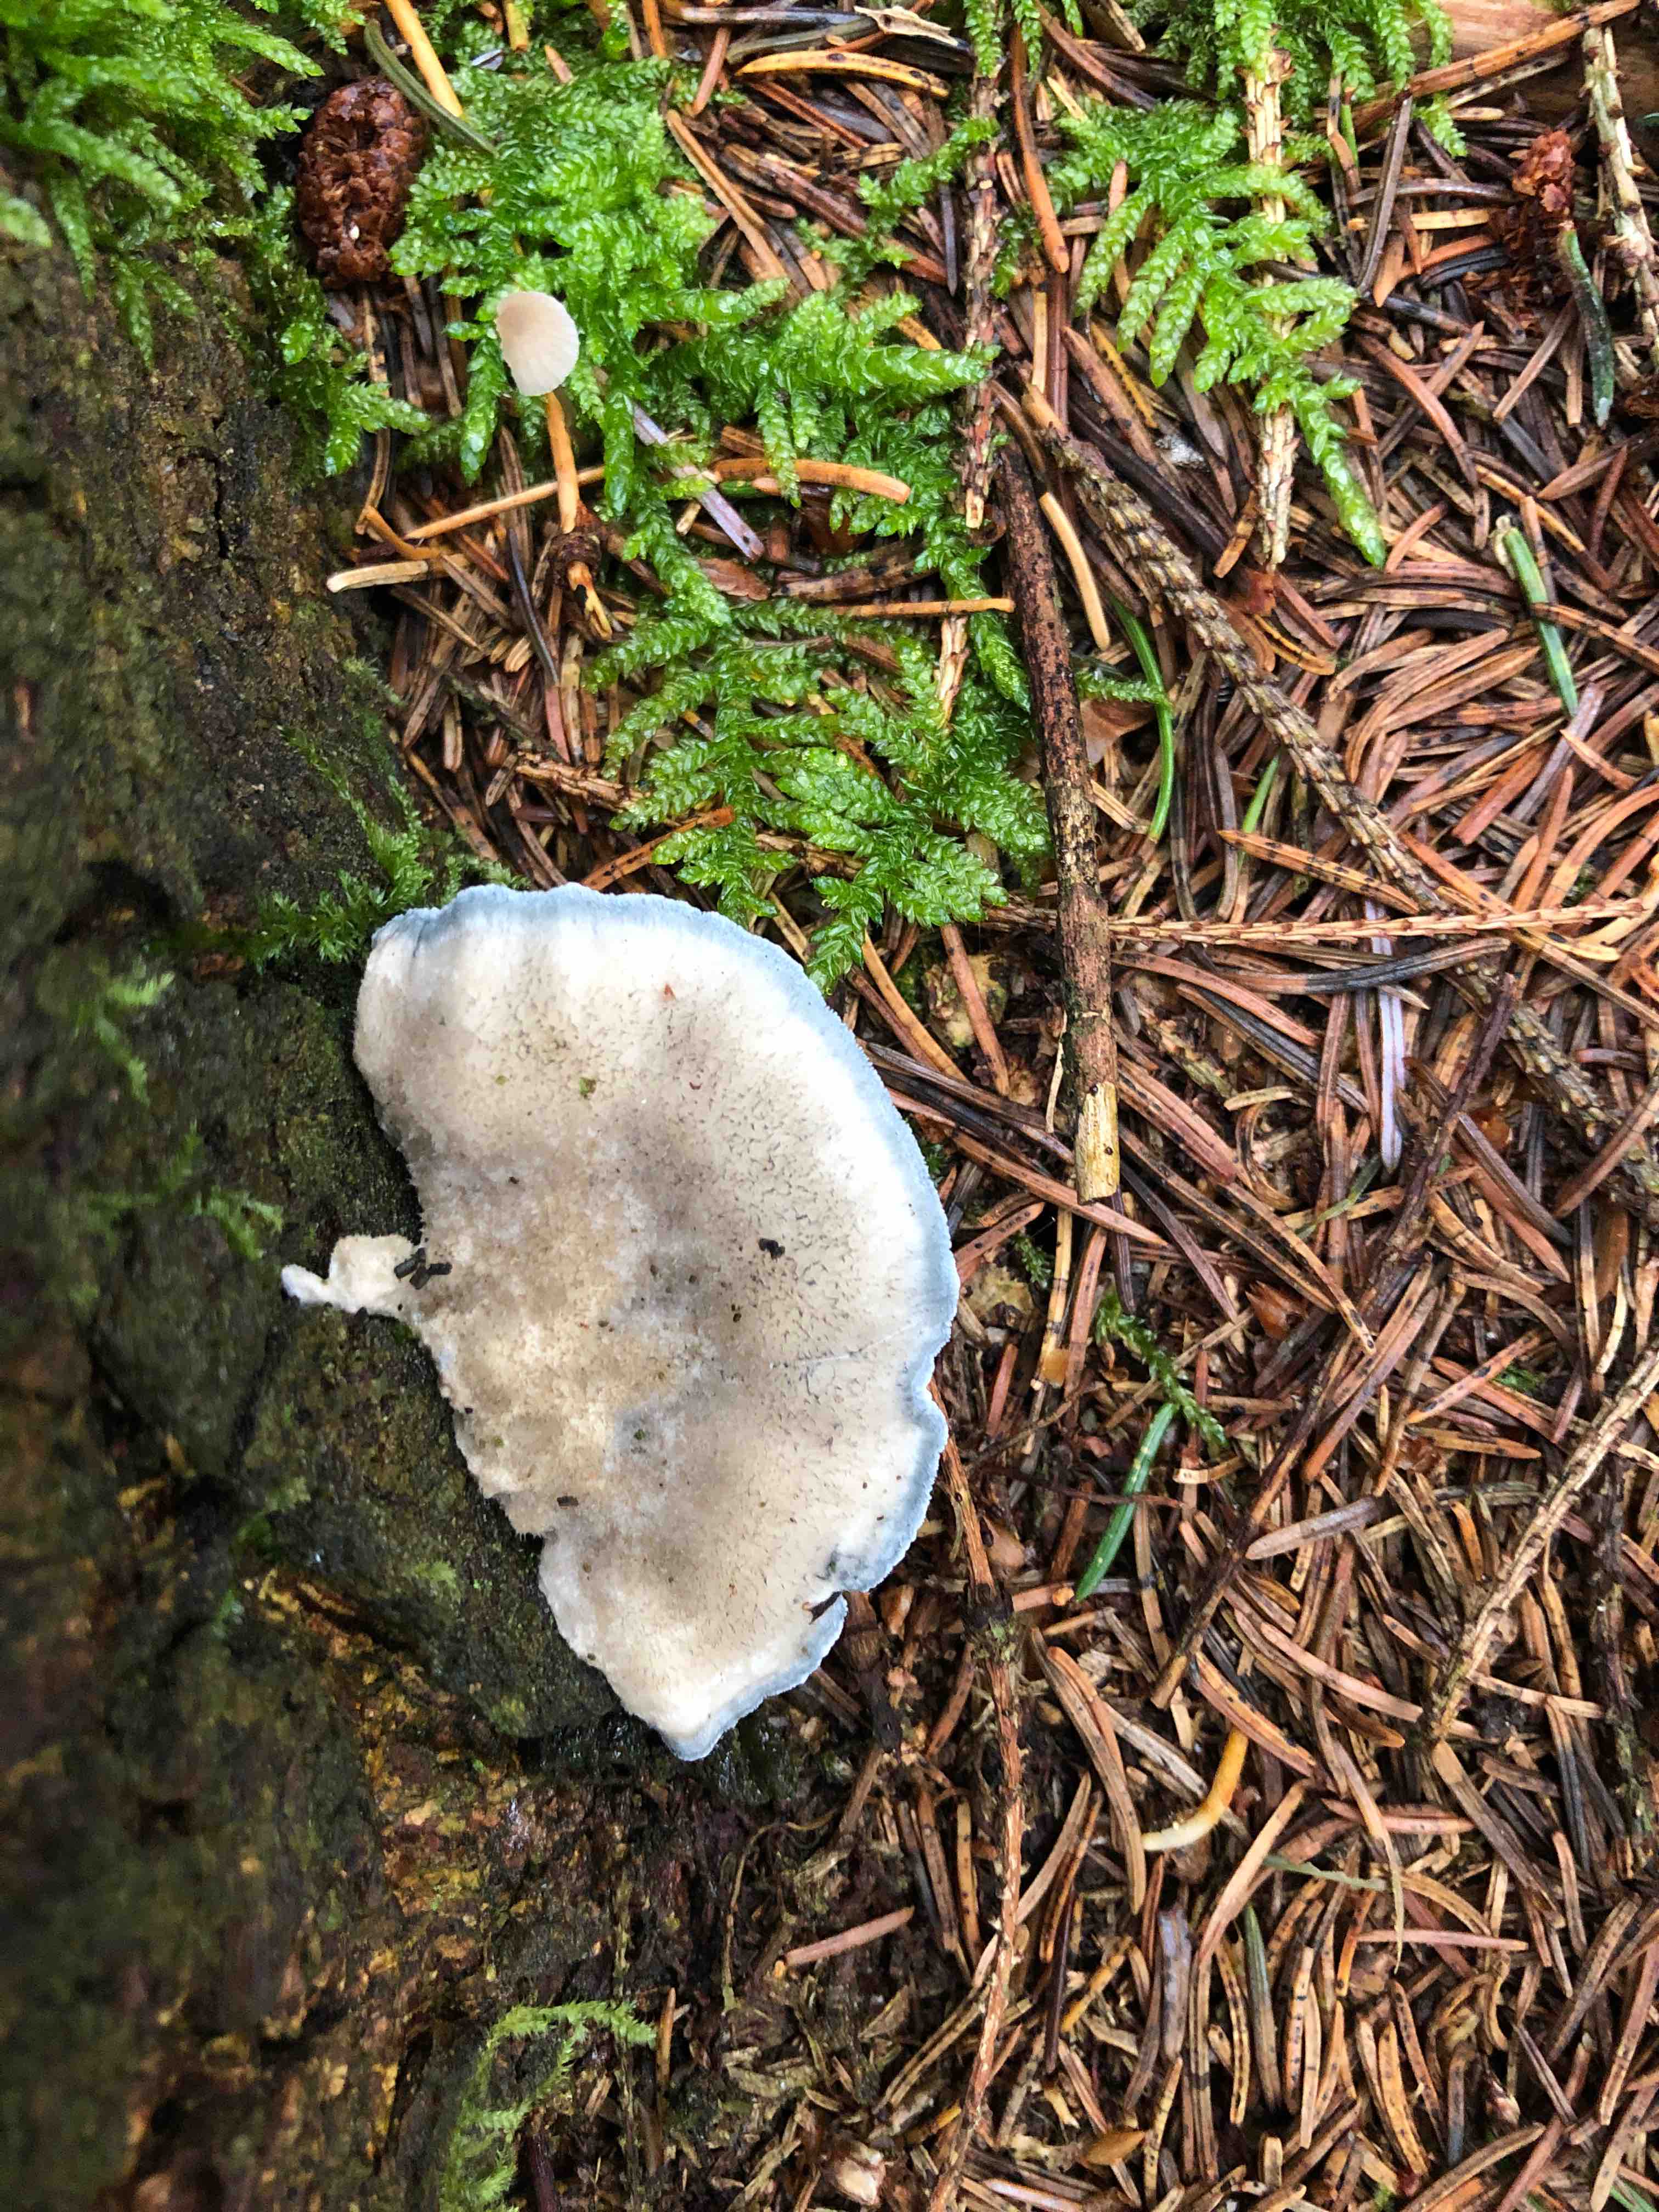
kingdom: Fungi
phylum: Basidiomycota
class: Agaricomycetes
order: Polyporales
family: Polyporaceae
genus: Cyanosporus
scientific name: Cyanosporus caesius
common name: blålig kødporesvamp
